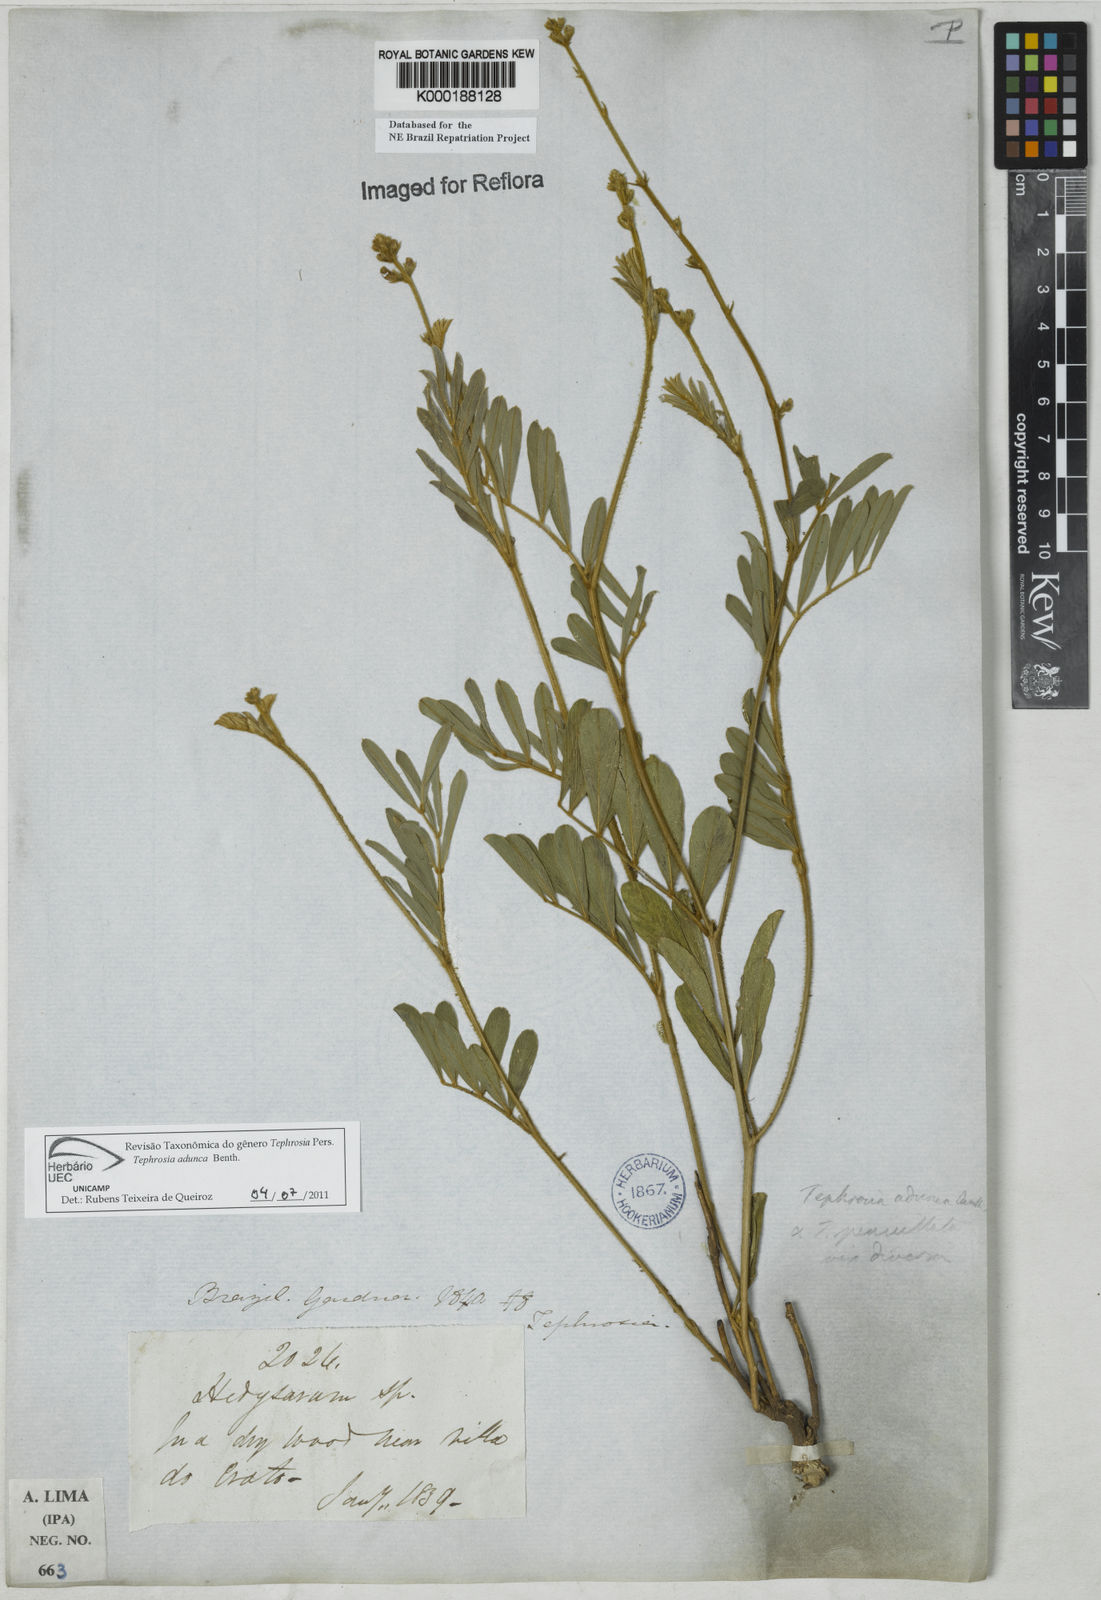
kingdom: Plantae
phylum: Tracheophyta
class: Magnoliopsida
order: Fabales
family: Fabaceae
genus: Tephrosia
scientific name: Tephrosia adunca
